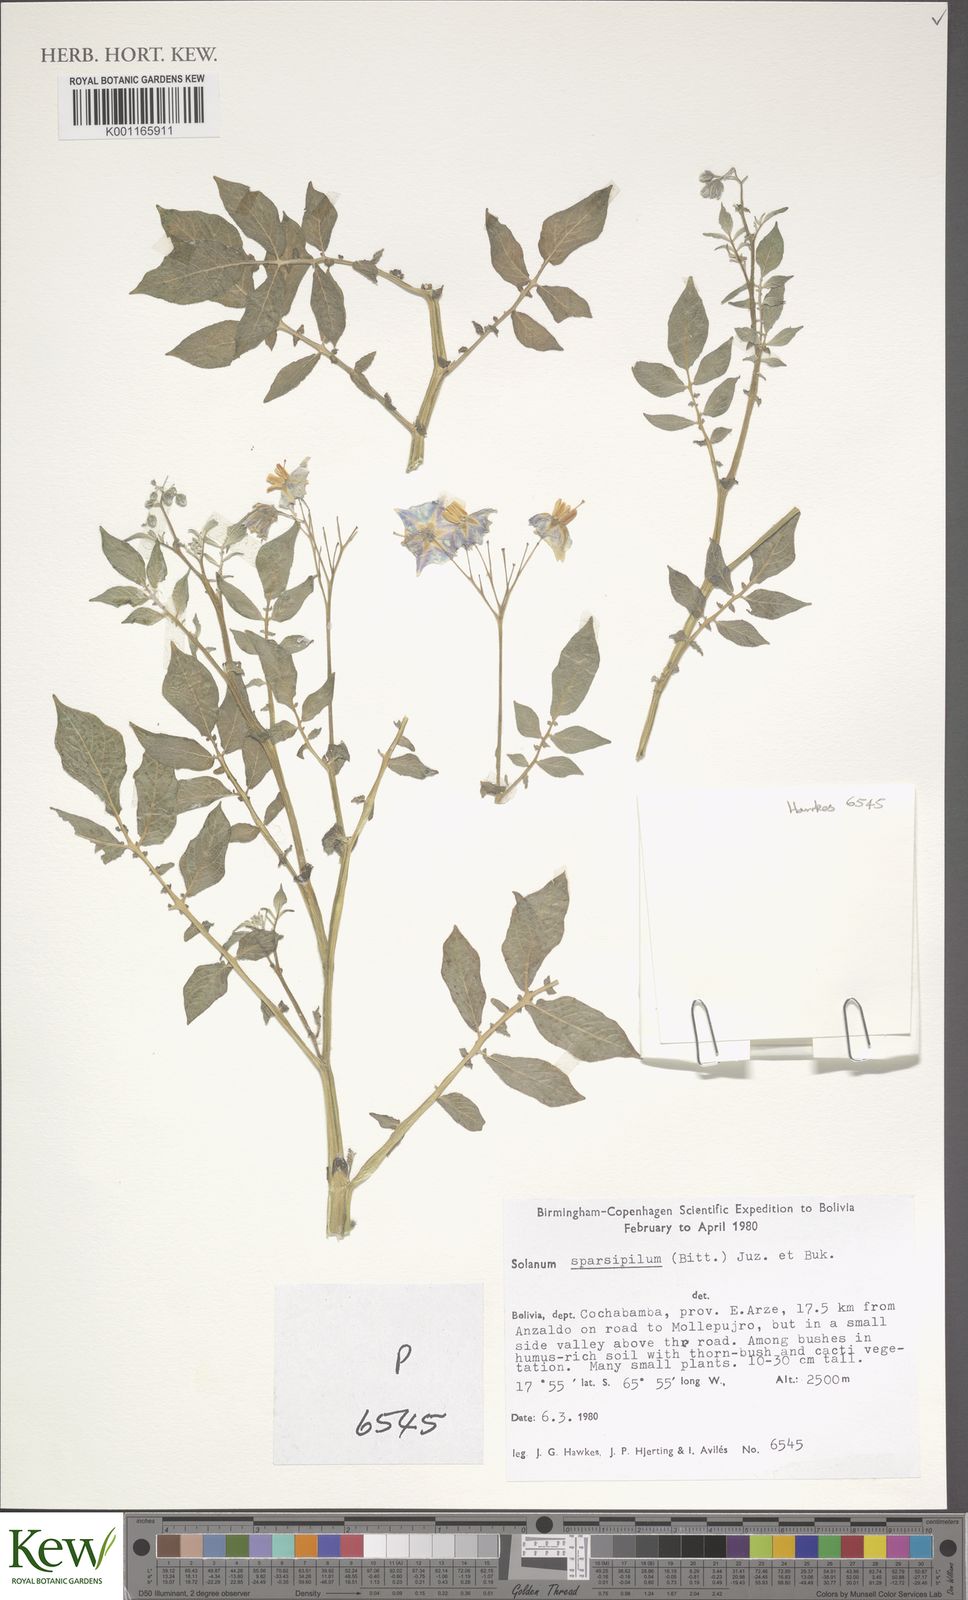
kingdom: Plantae
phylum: Tracheophyta
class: Magnoliopsida
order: Solanales
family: Solanaceae
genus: Solanum
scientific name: Solanum brevicaule
